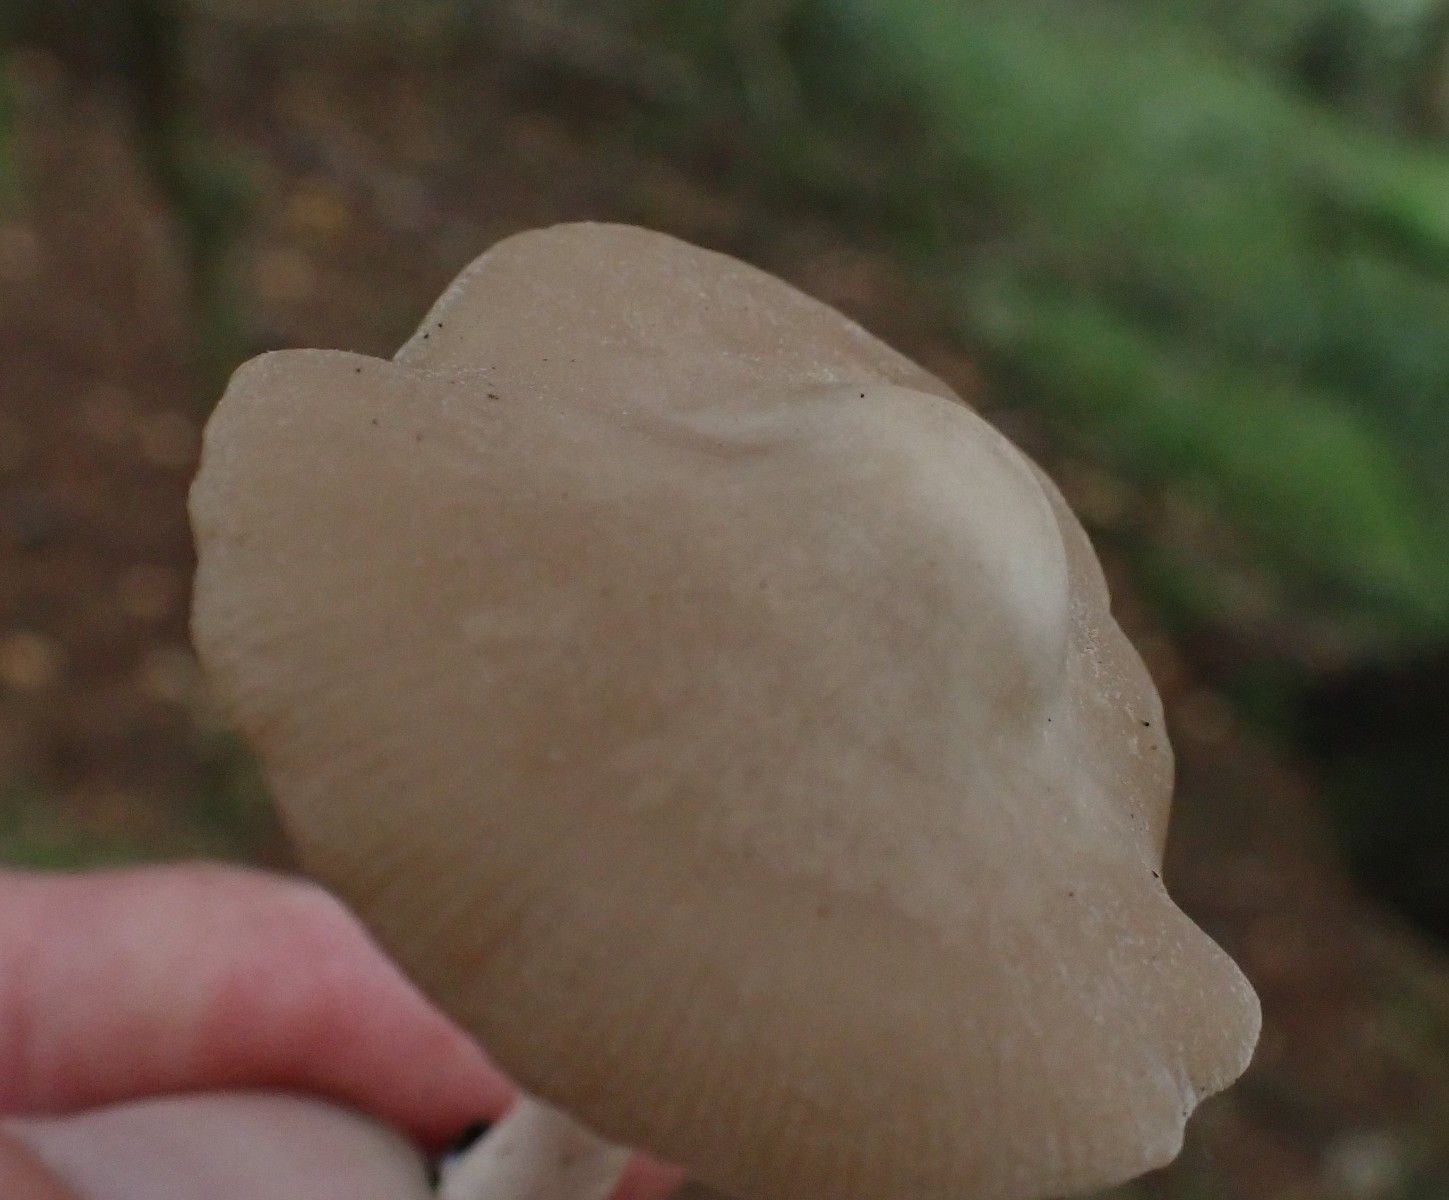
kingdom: Fungi
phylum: Basidiomycota
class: Agaricomycetes
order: Agaricales
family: Entolomataceae
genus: Entoloma
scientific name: Entoloma
